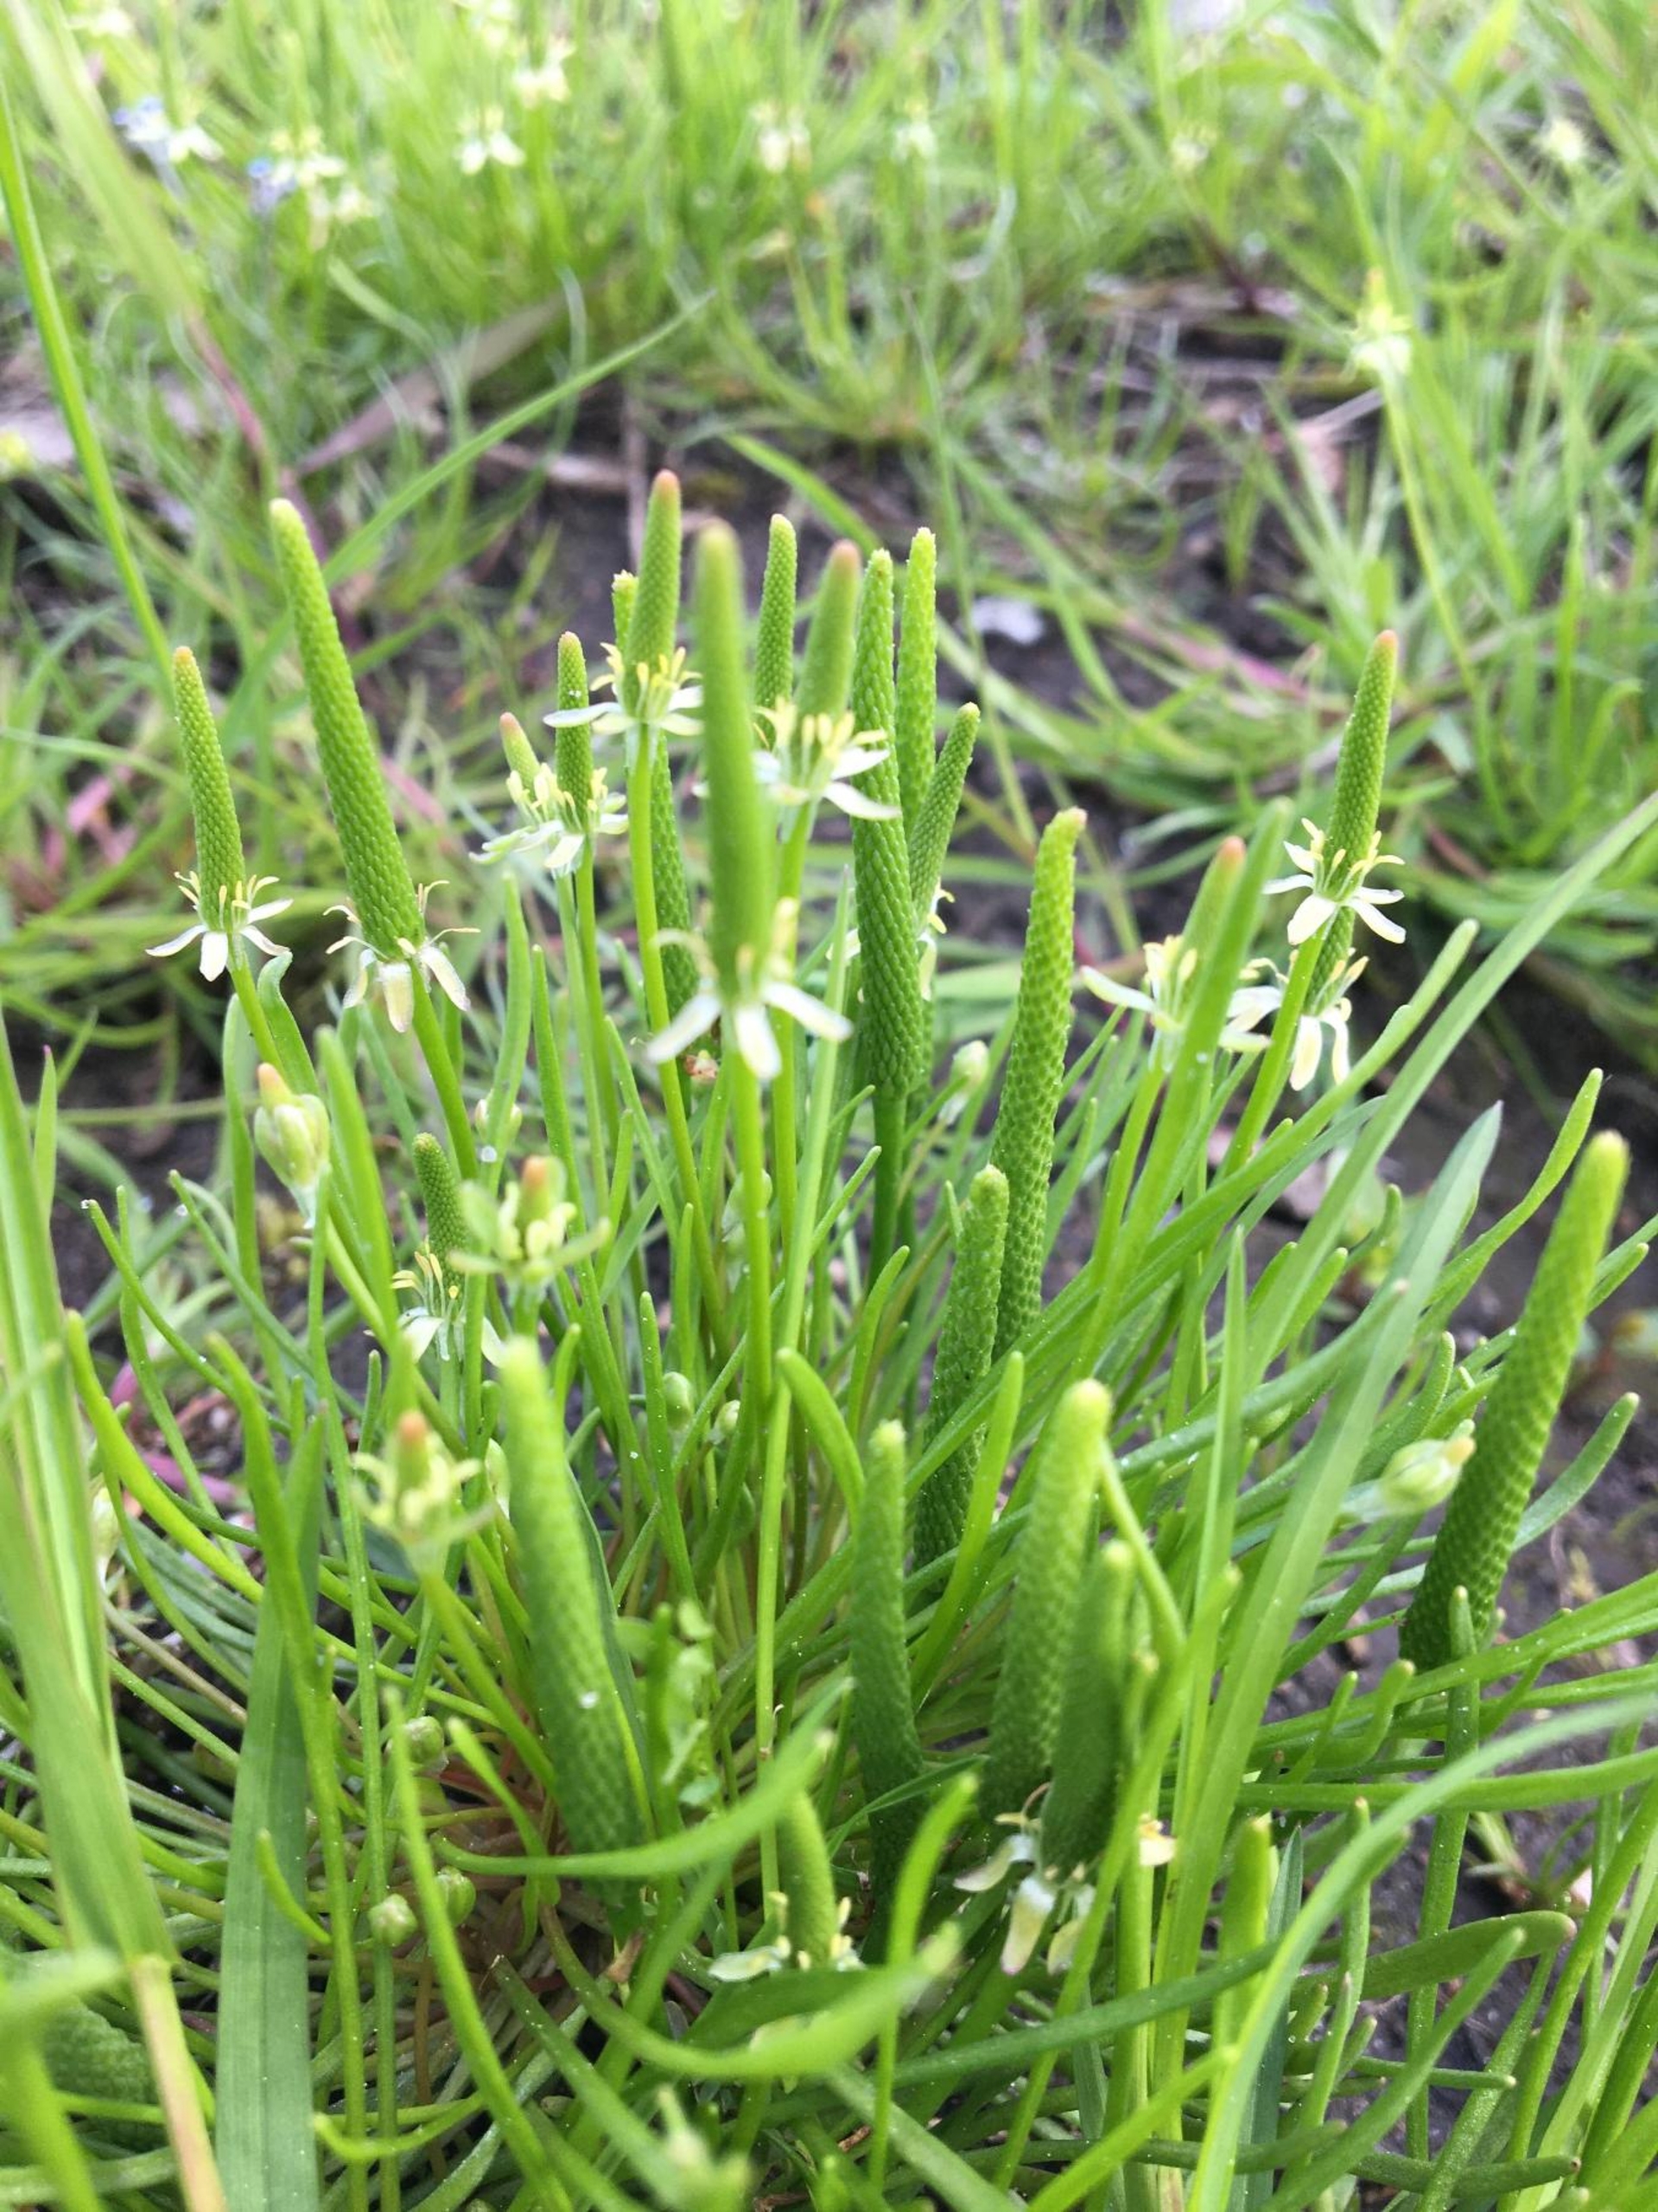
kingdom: Plantae
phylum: Tracheophyta
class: Magnoliopsida
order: Ranunculales
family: Ranunculaceae
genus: Myosurus
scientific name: Myosurus minimus
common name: Musehale
